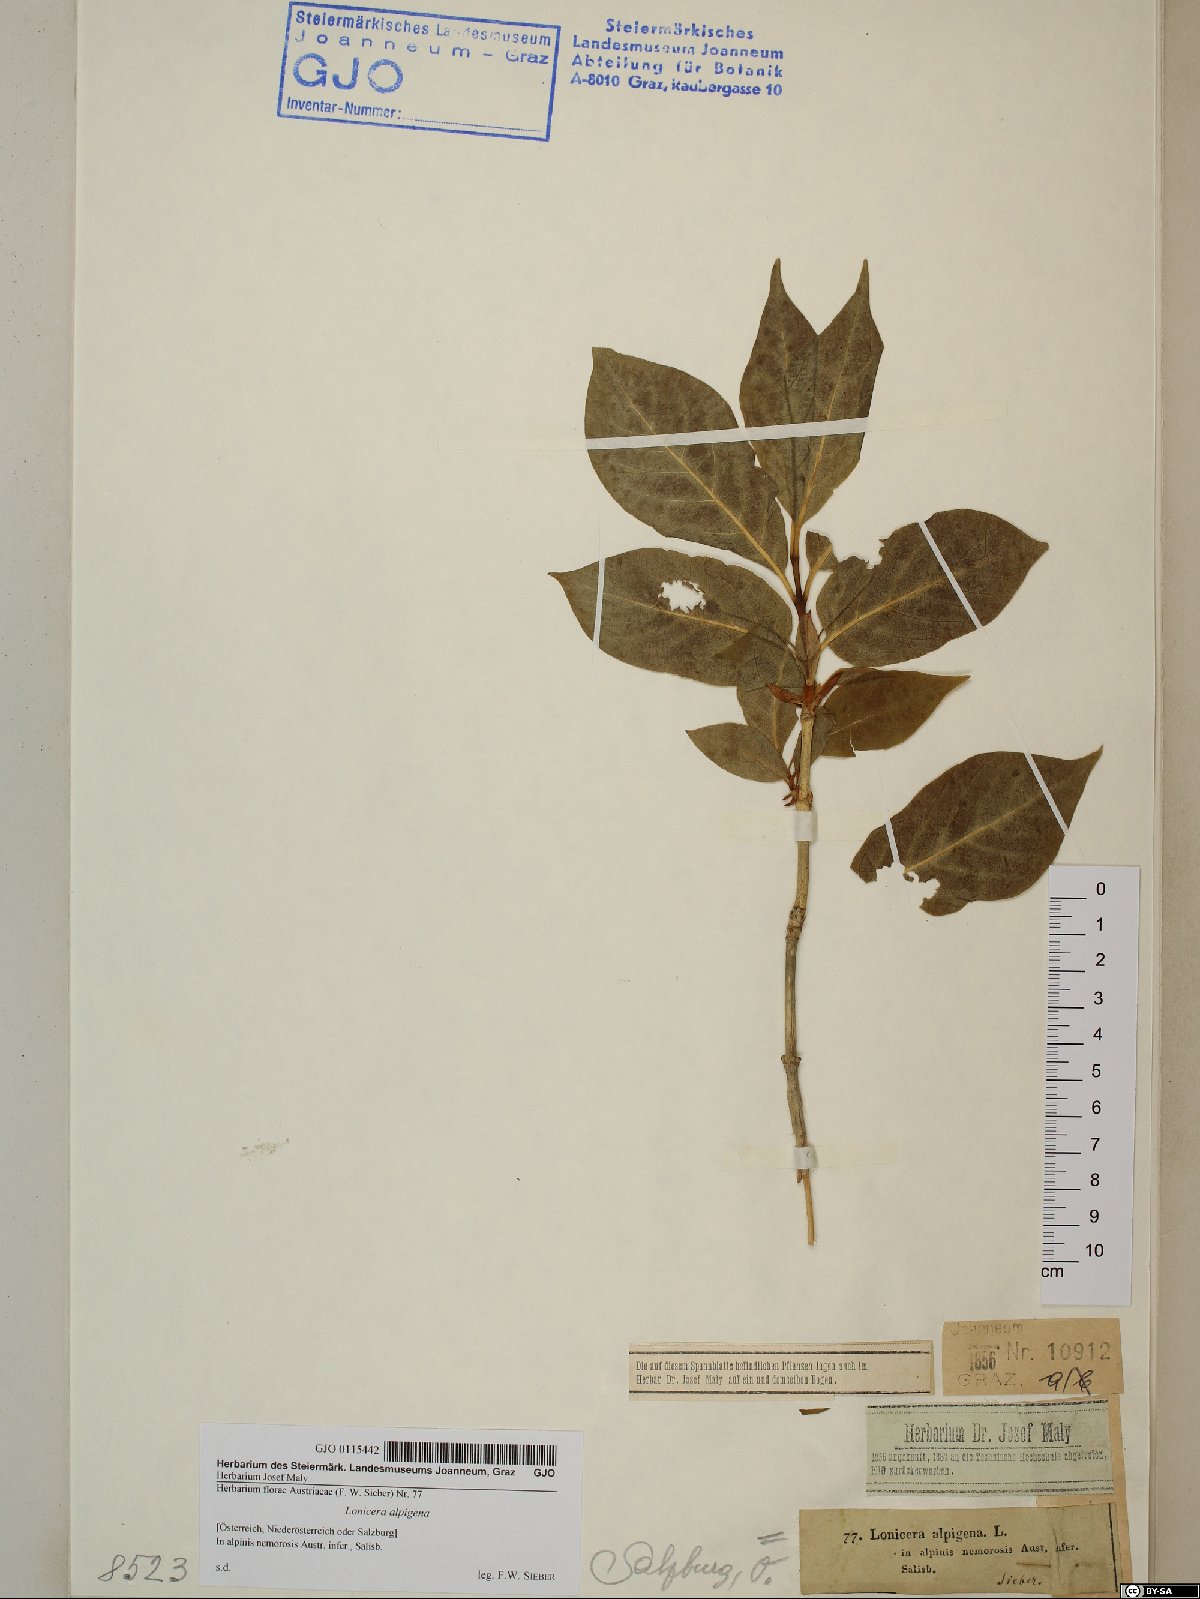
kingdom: Plantae
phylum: Tracheophyta
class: Magnoliopsida
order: Dipsacales
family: Caprifoliaceae
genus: Lonicera
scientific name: Lonicera alpigena
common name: Alpine honeysuckle
